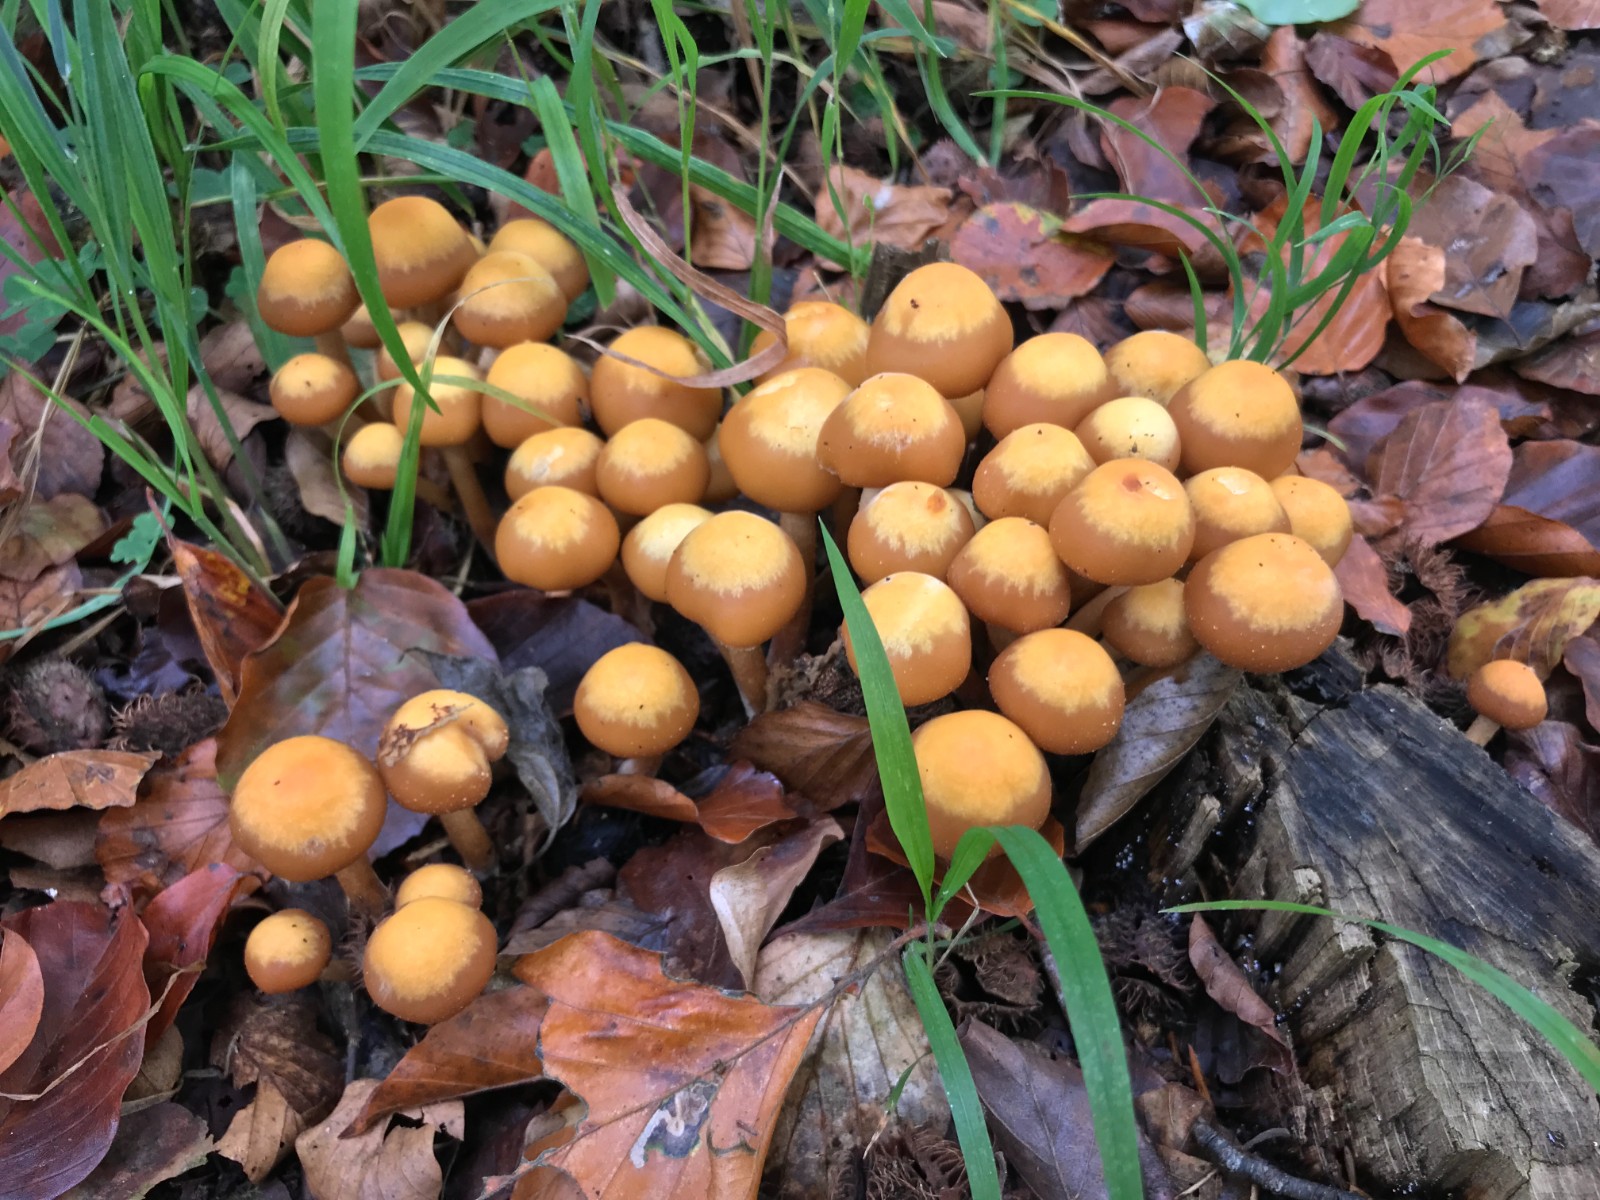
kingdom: Fungi
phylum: Basidiomycota
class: Agaricomycetes
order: Agaricales
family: Strophariaceae
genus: Kuehneromyces
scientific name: Kuehneromyces mutabilis
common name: foranderlig skælhat
